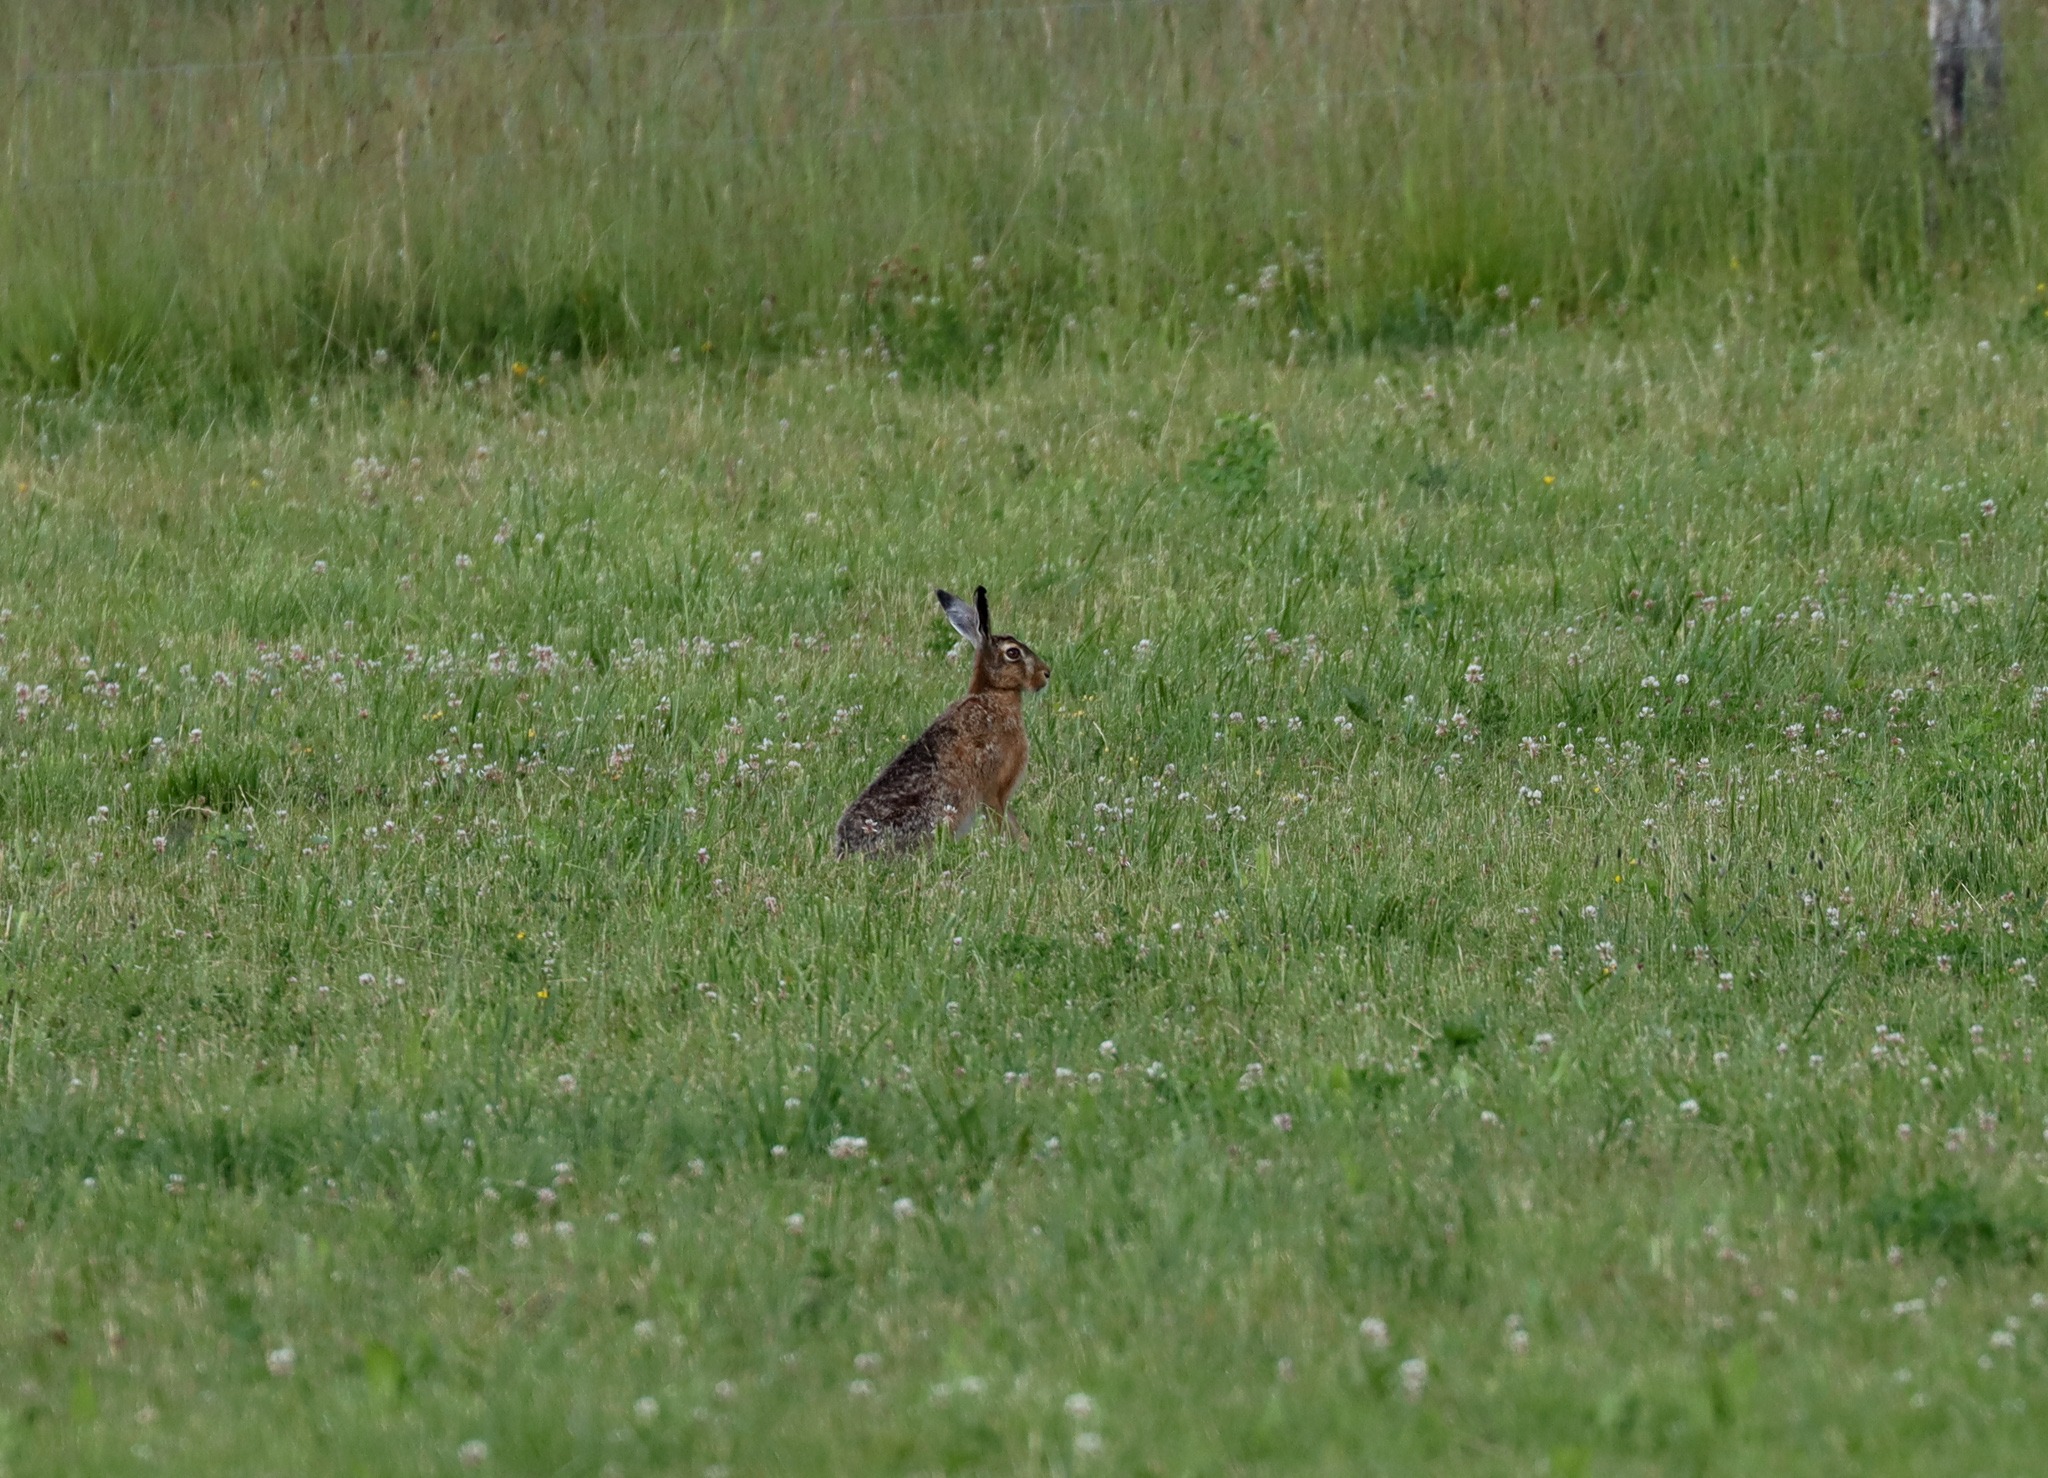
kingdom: Animalia
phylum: Chordata
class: Mammalia
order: Lagomorpha
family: Leporidae
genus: Lepus
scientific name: Lepus europaeus
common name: Hare
